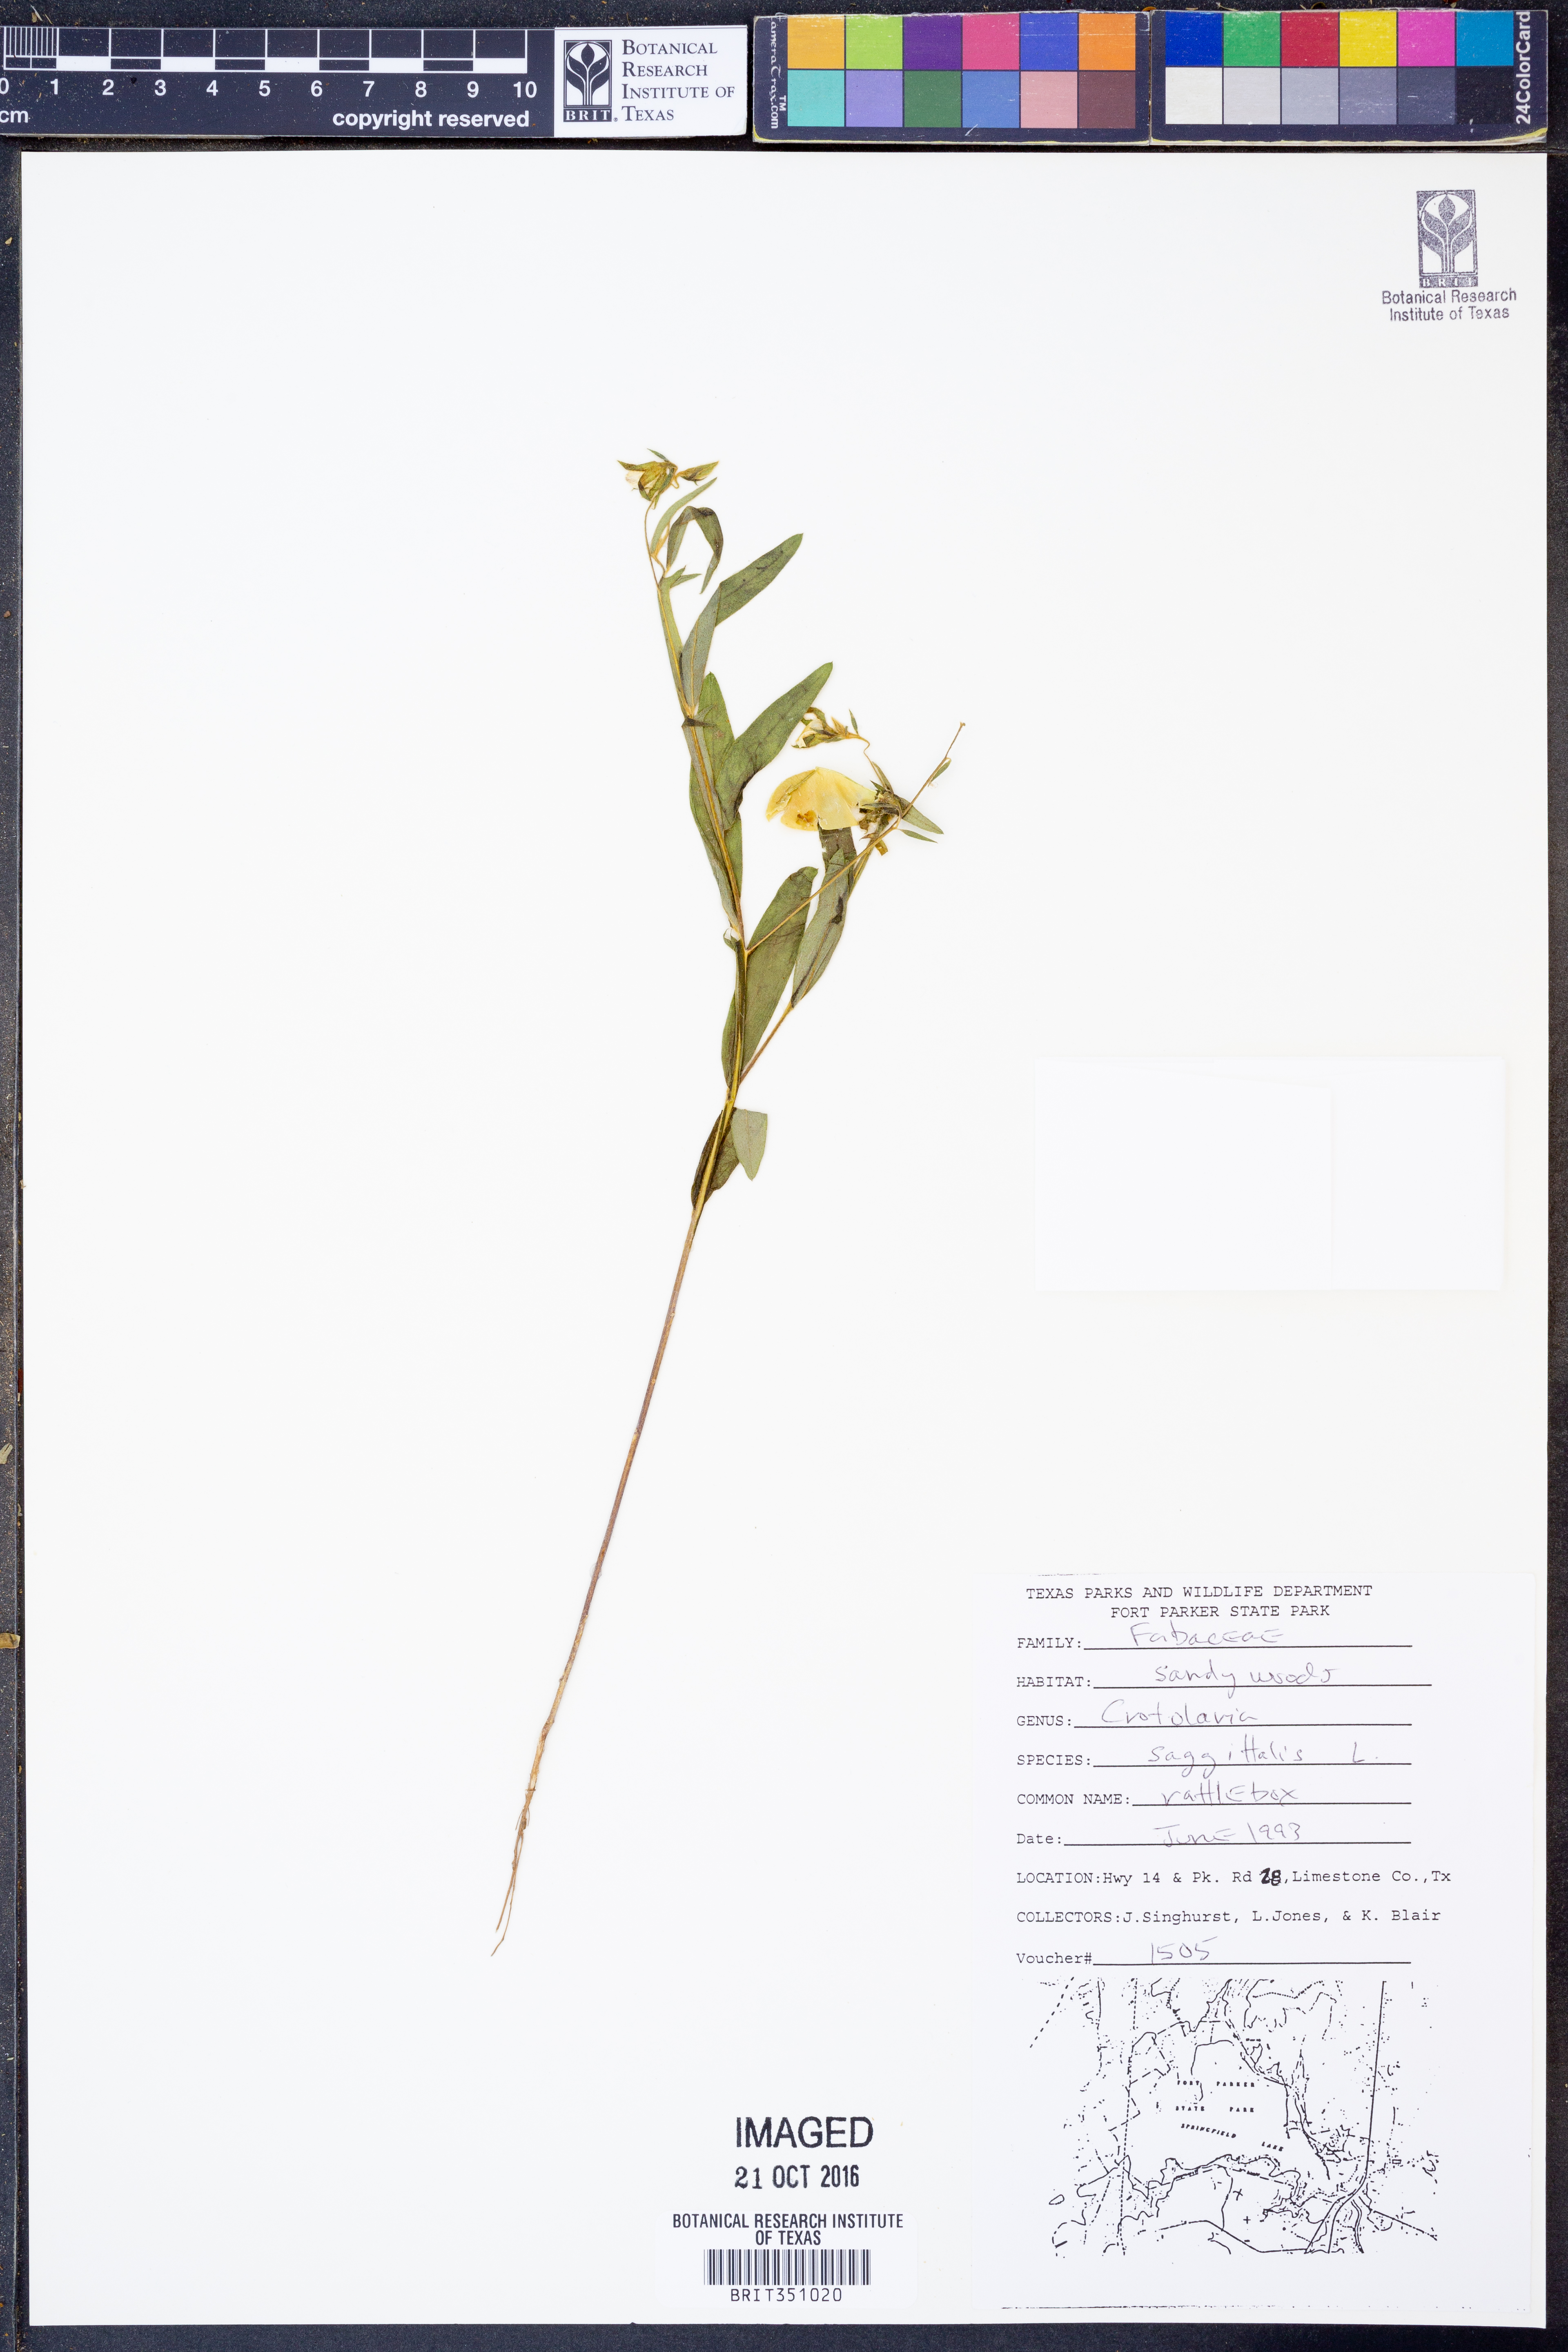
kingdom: Plantae
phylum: Tracheophyta
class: Magnoliopsida
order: Fabales
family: Fabaceae
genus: Crotalaria
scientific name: Crotalaria sagittalis
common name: Arrowhead rattlebox
